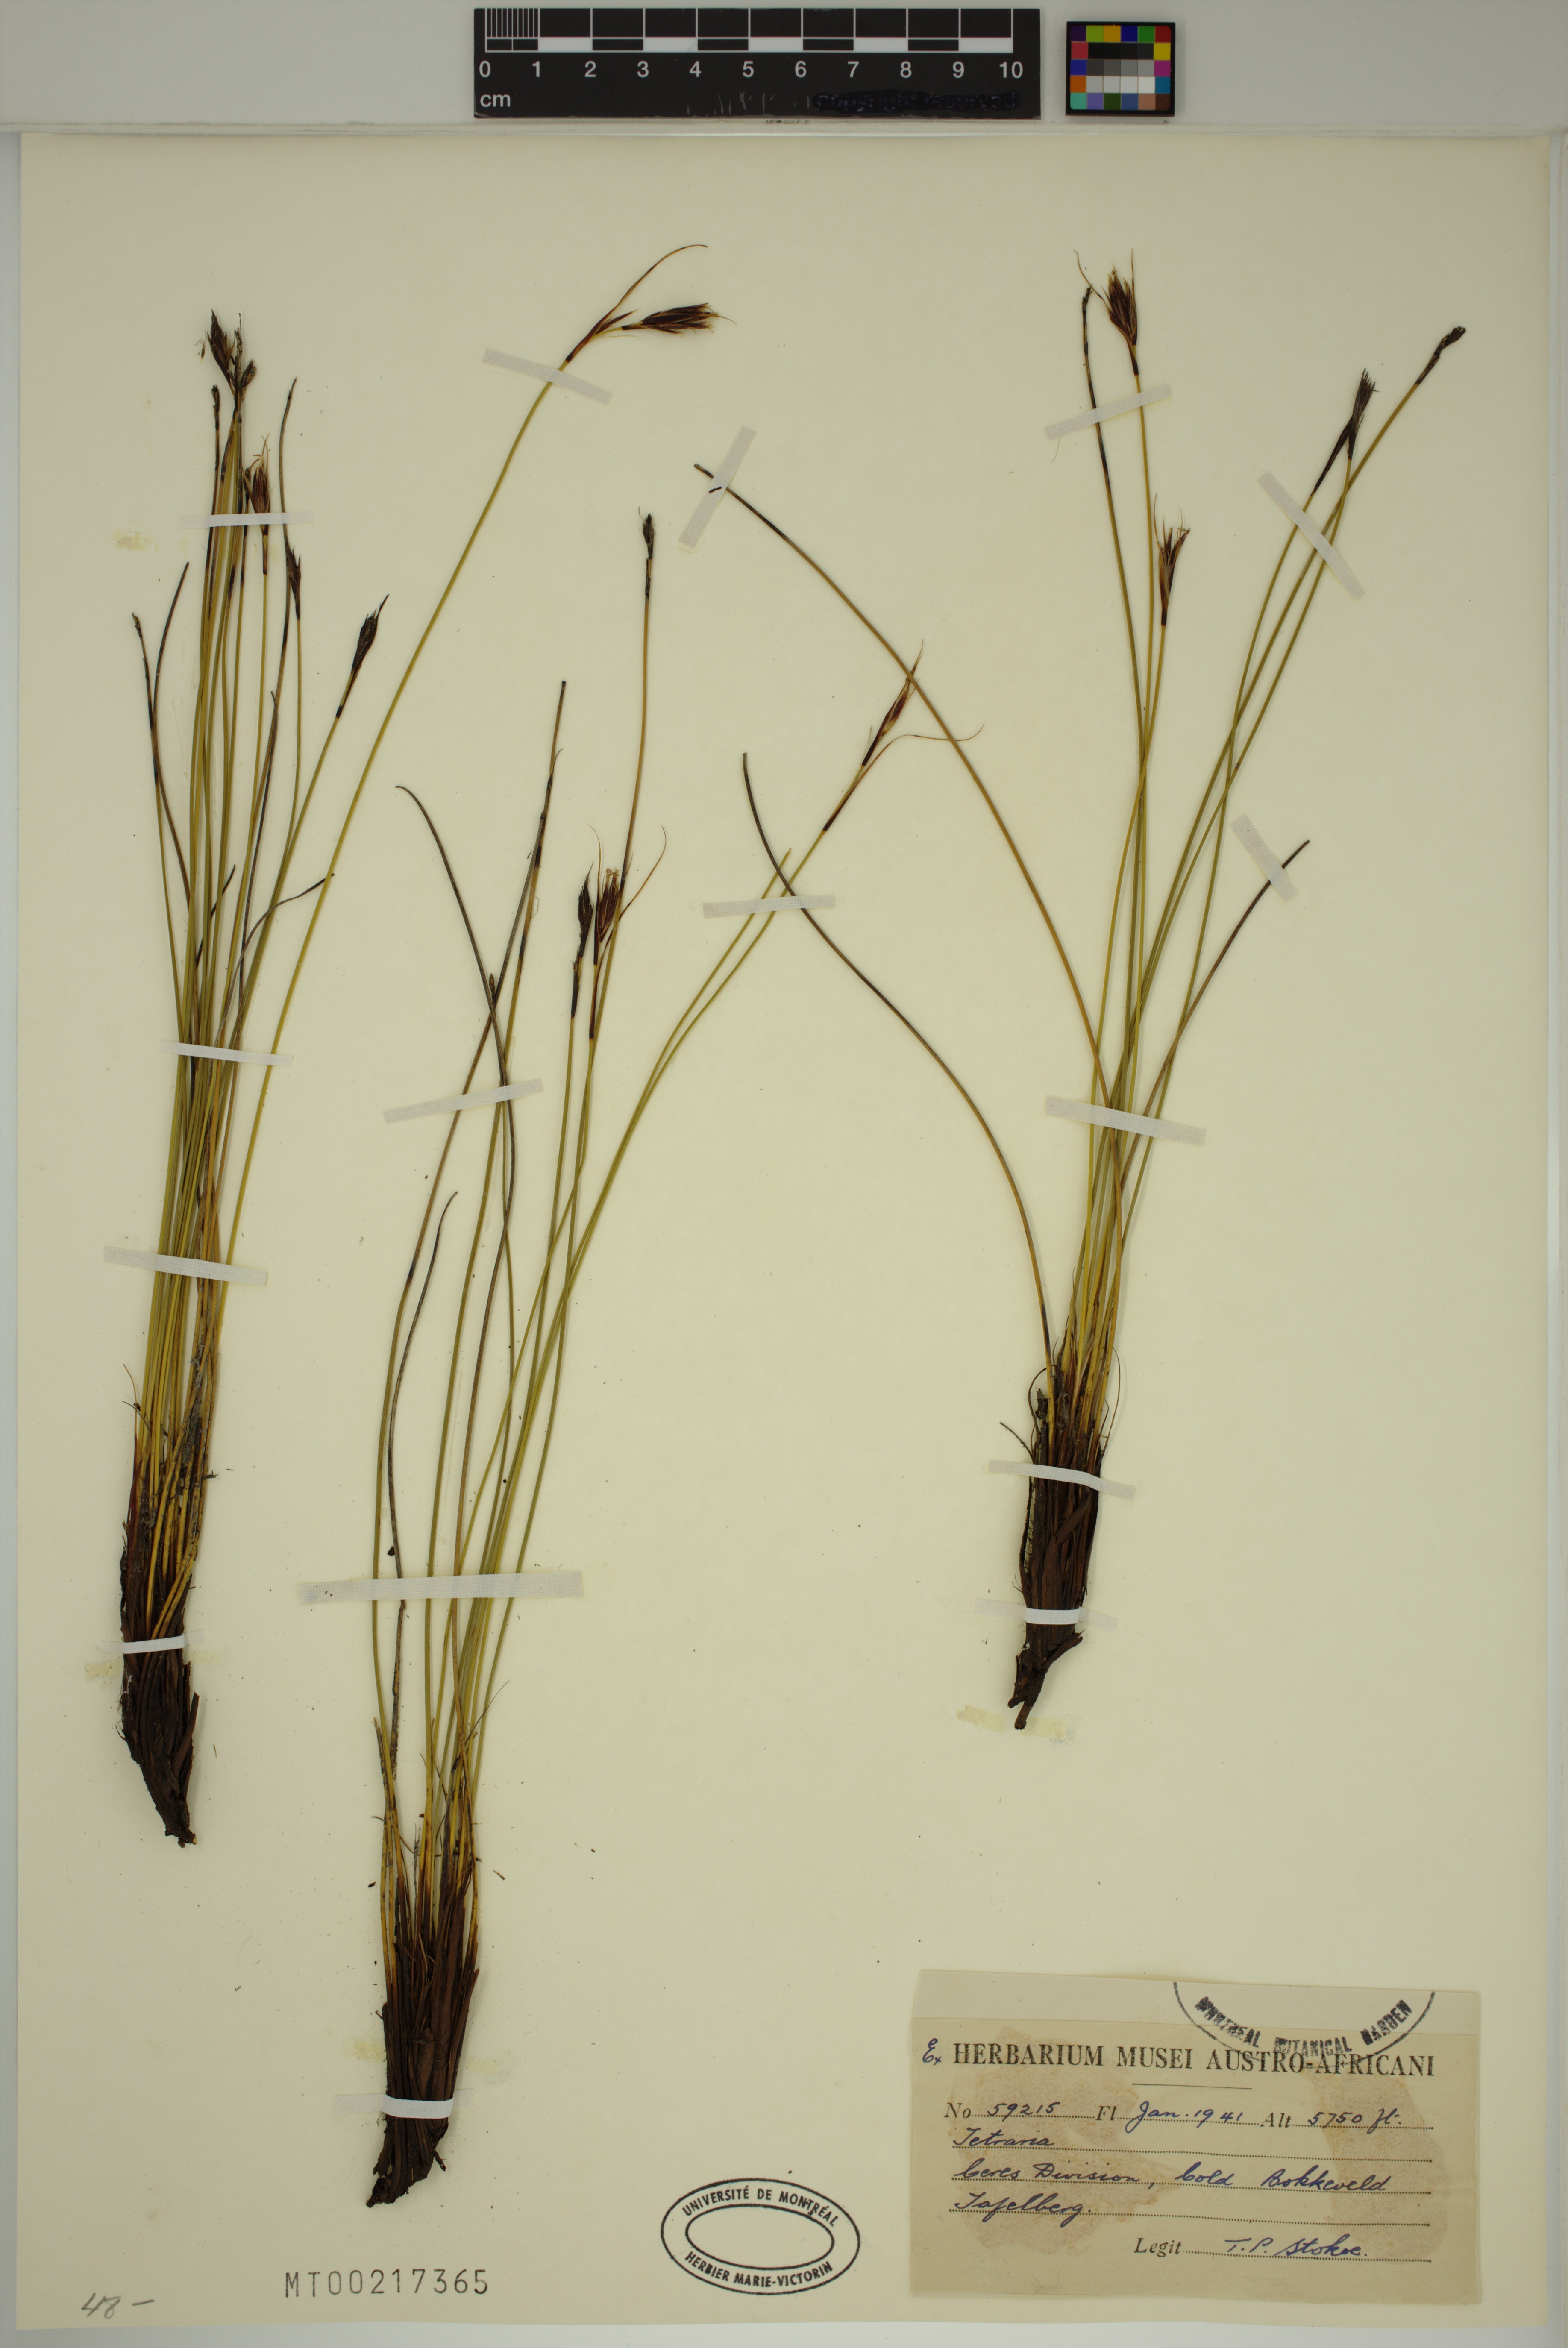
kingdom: Plantae
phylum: Tracheophyta
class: Liliopsida
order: Poales
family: Cyperaceae
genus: Tetraria
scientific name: Tetraria
